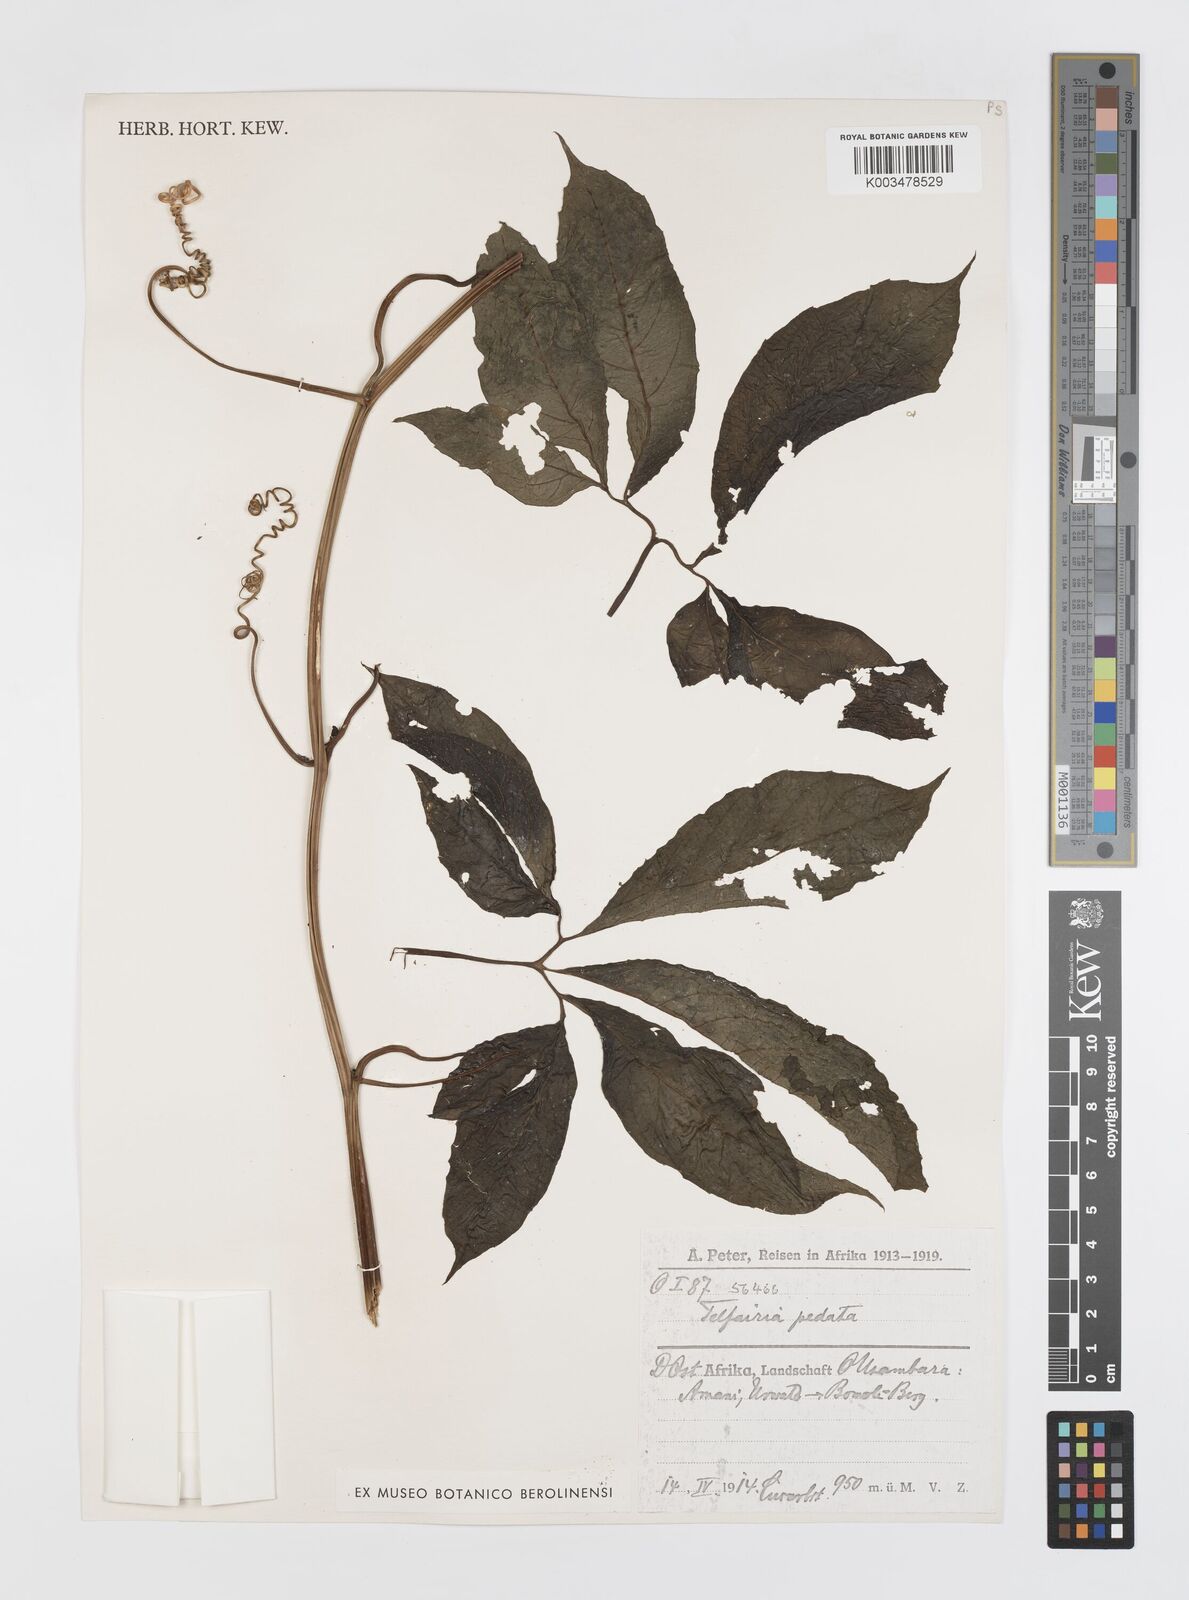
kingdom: Plantae
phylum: Tracheophyta
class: Magnoliopsida
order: Cucurbitales
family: Cucurbitaceae
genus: Telfairia
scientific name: Telfairia pedata
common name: Zanzibar oilvine
